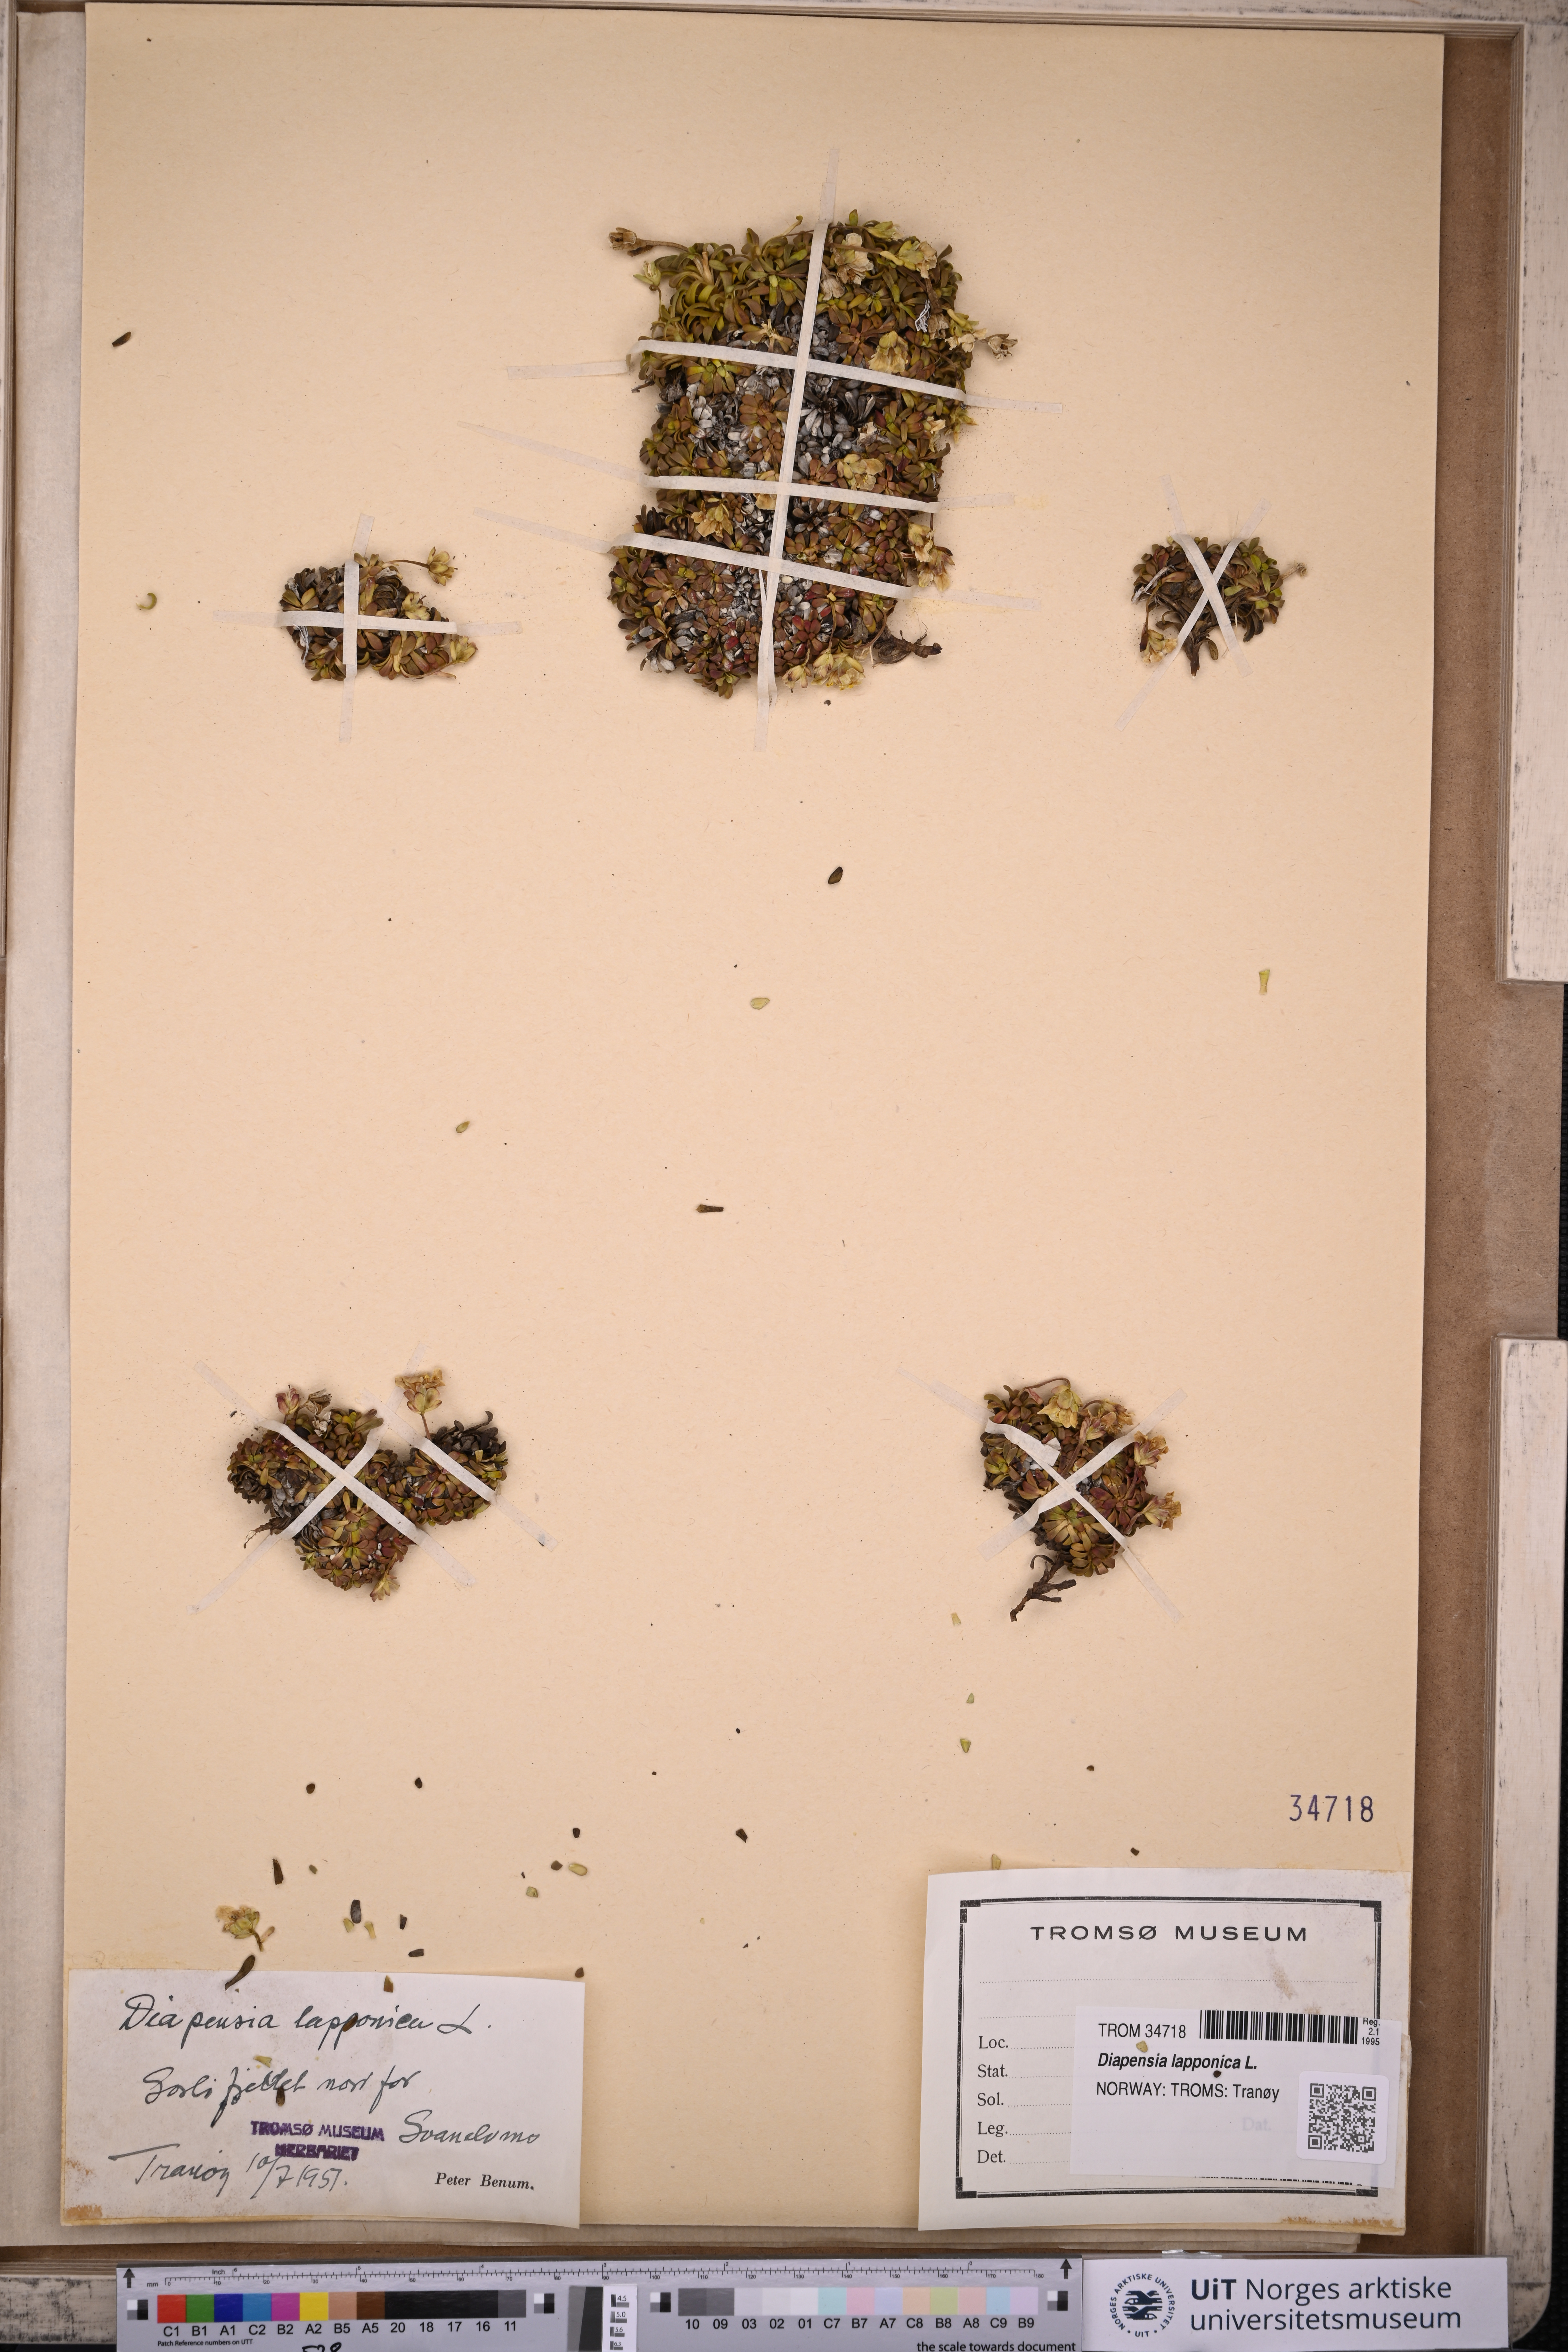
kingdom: Plantae
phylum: Tracheophyta
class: Magnoliopsida
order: Ericales
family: Diapensiaceae
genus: Diapensia
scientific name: Diapensia lapponica
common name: Diapensia
